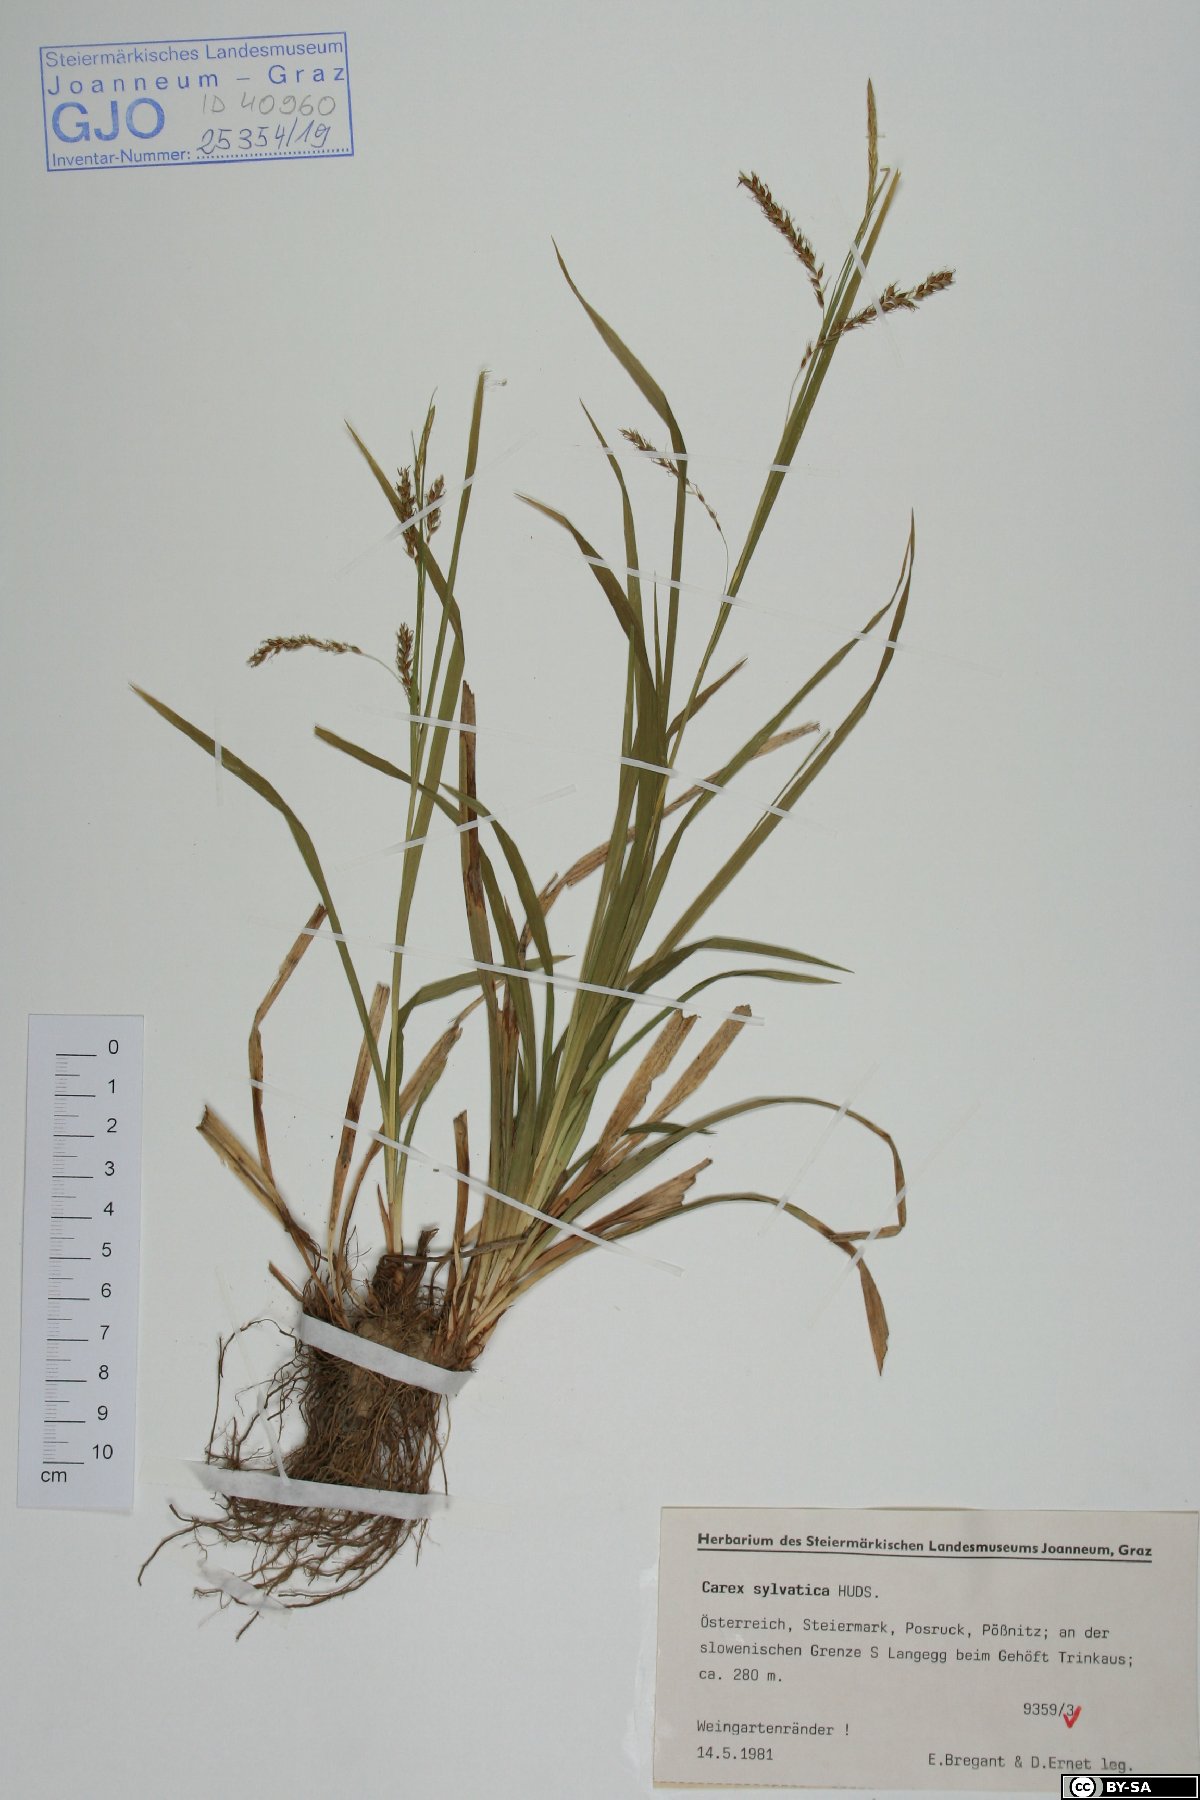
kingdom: Plantae
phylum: Tracheophyta
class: Liliopsida
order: Poales
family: Cyperaceae
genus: Carex
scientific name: Carex sylvatica
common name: Wood-sedge
